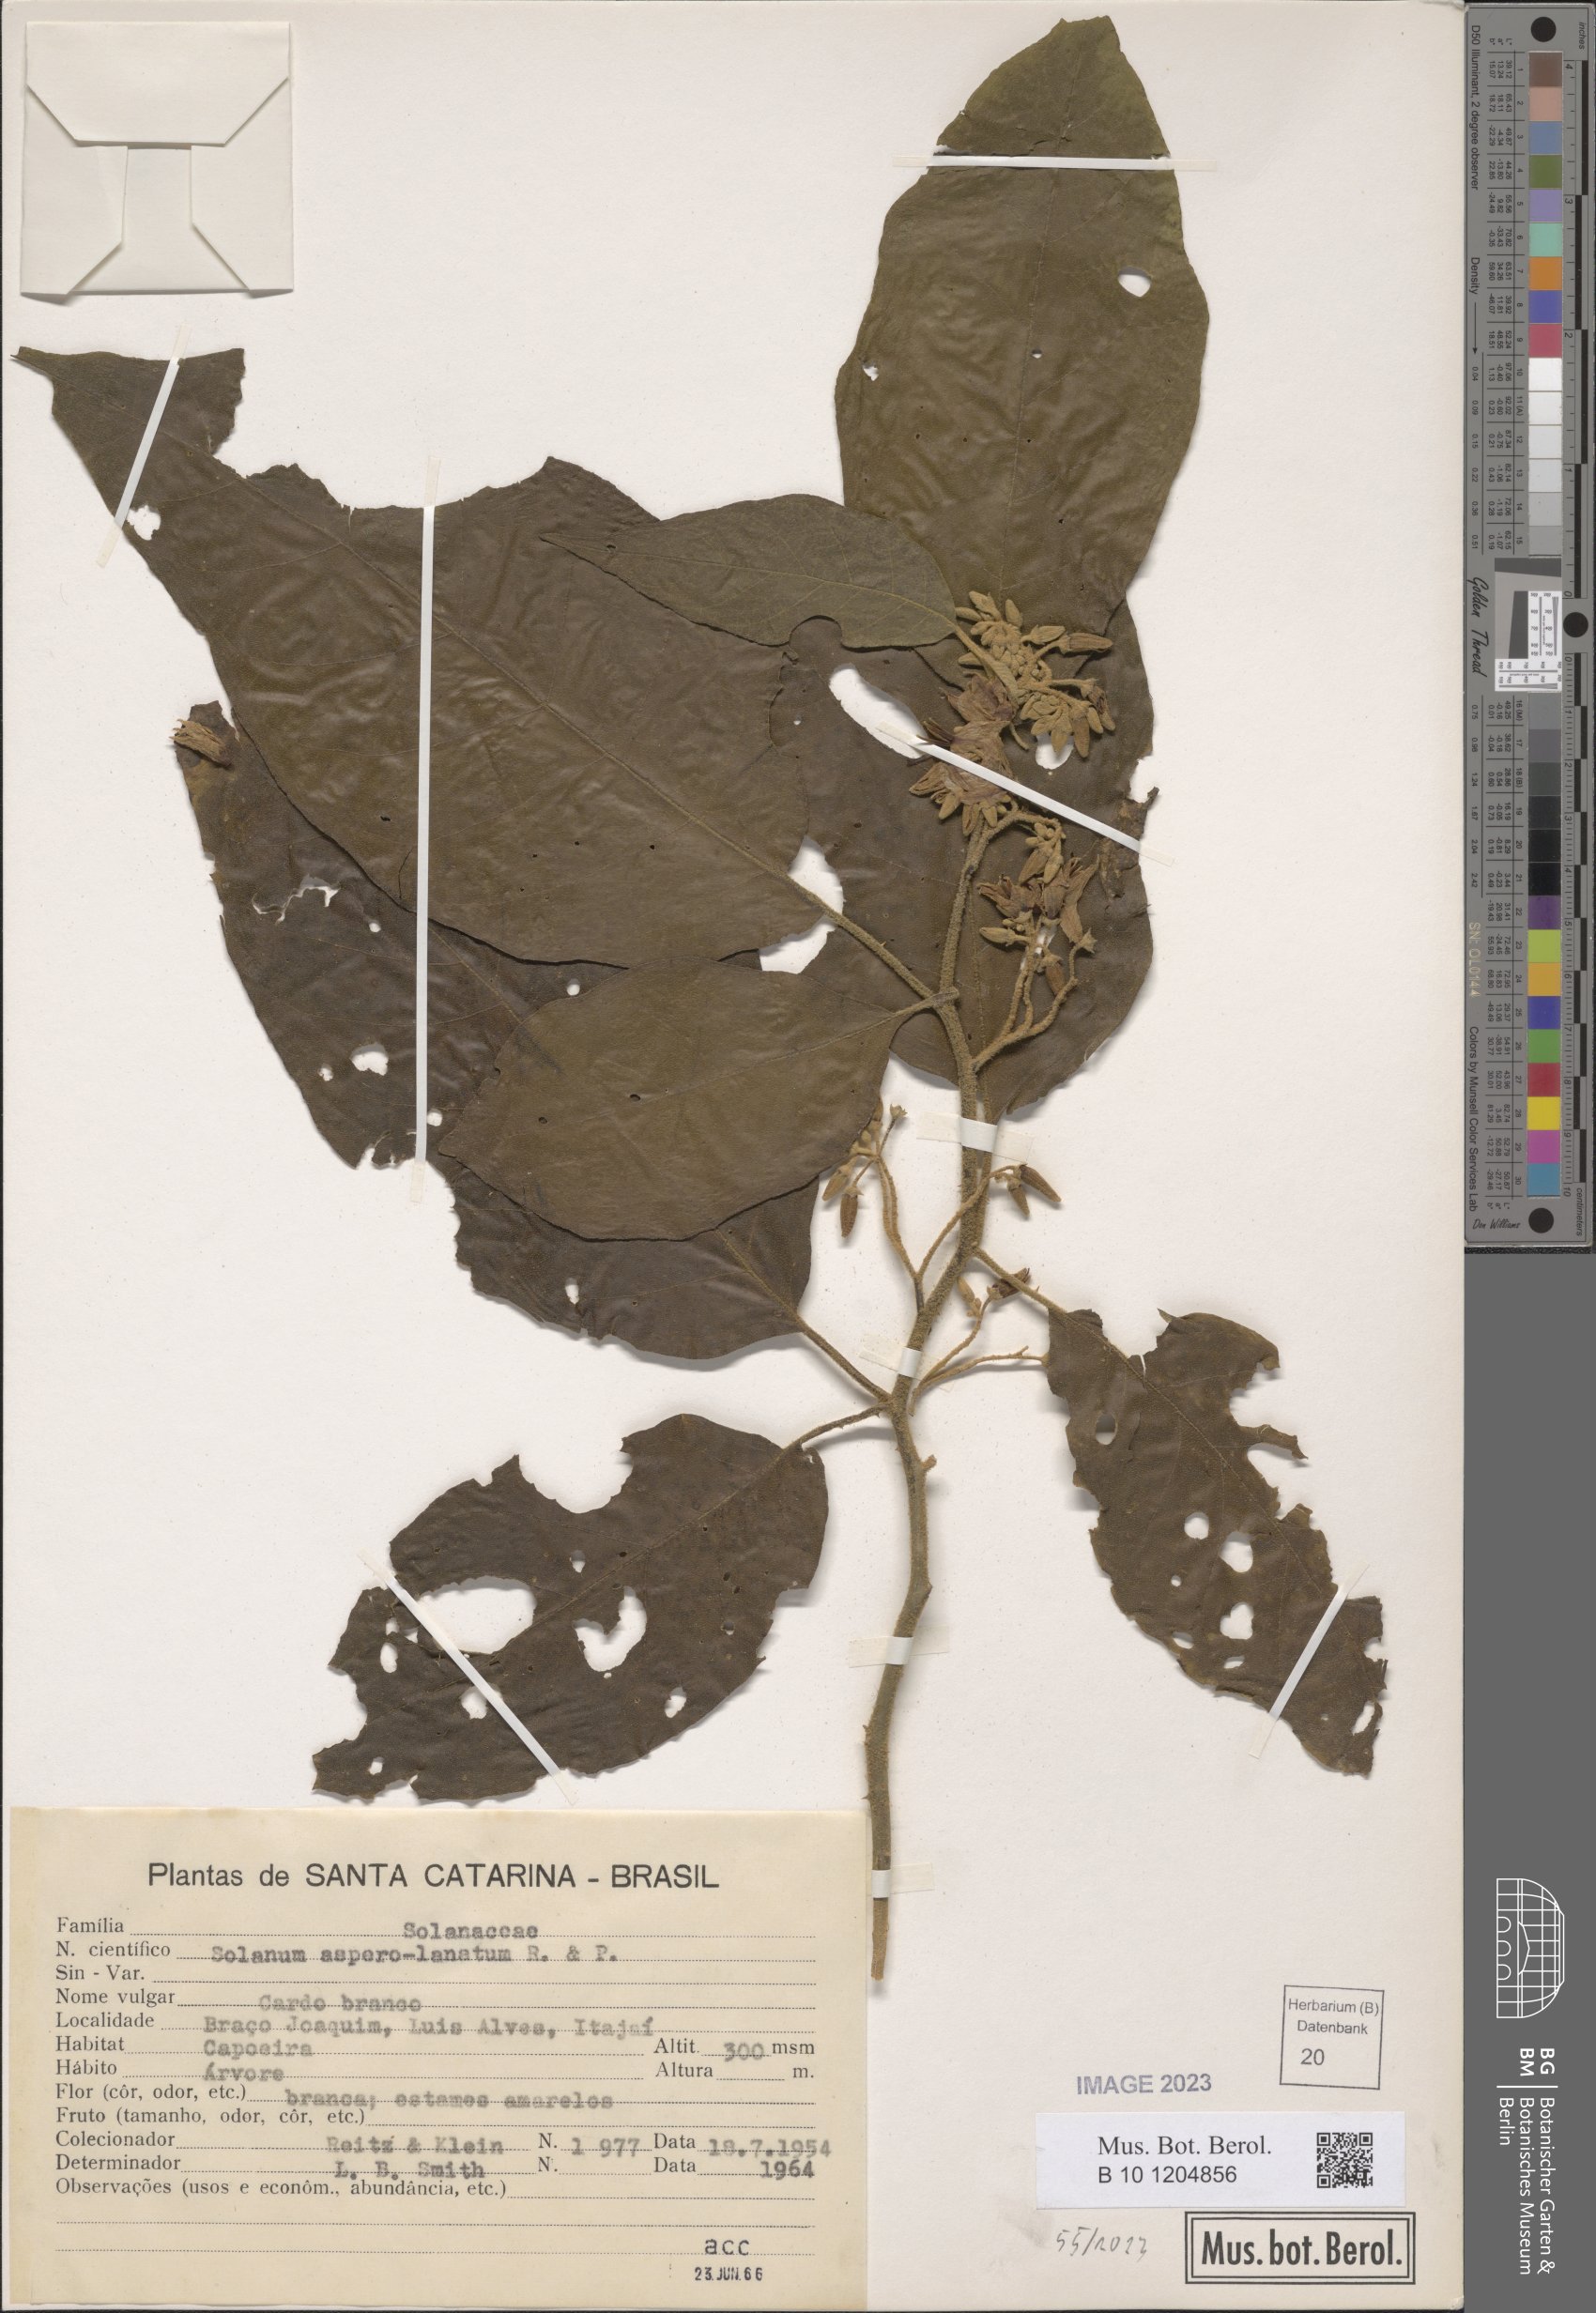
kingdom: Plantae
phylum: Tracheophyta
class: Magnoliopsida
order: Solanales
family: Solanaceae
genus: Solanum
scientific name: Solanum asperolanatum
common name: Devil's-fig
